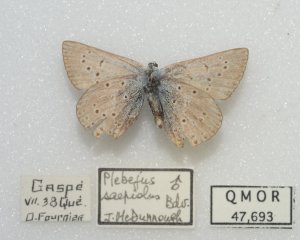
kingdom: Animalia
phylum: Arthropoda
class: Insecta
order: Lepidoptera
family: Lycaenidae
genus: Plebejus
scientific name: Plebejus saepiolus
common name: Greenish Blue
